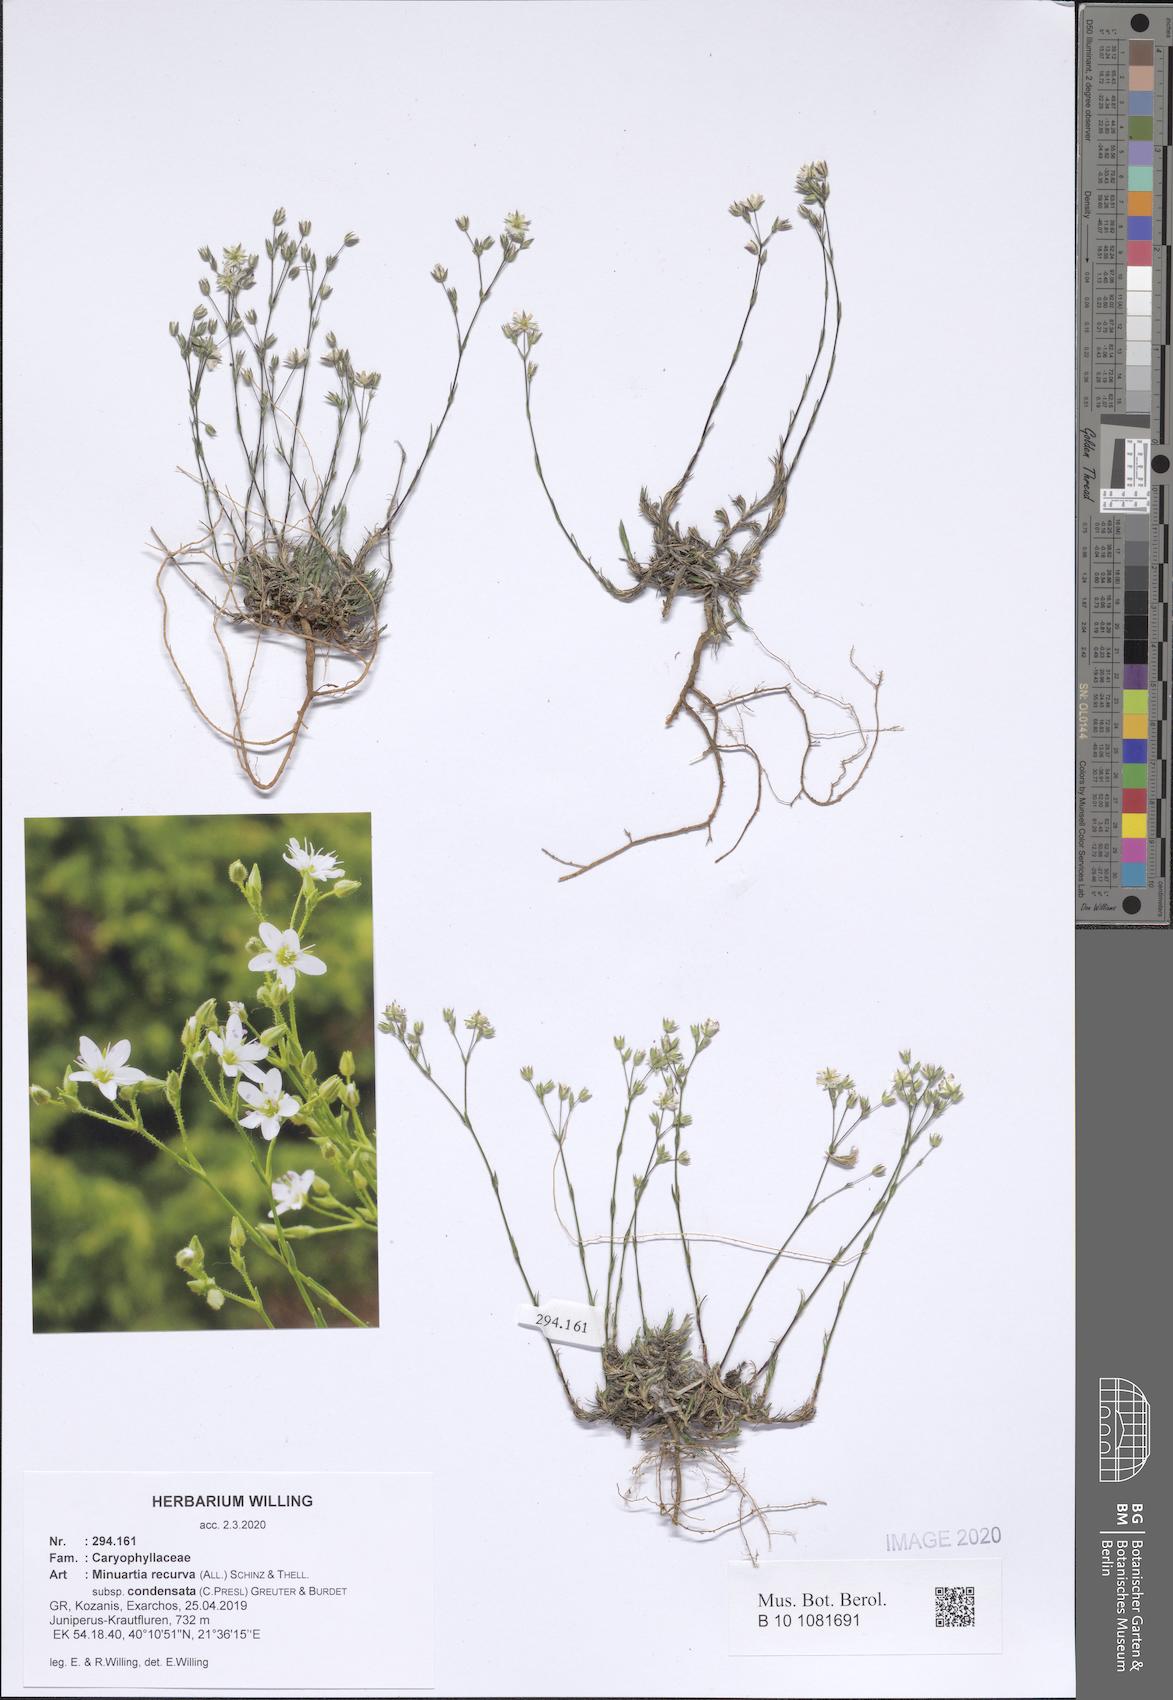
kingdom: Plantae
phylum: Tracheophyta
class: Magnoliopsida
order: Caryophyllales
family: Caryophyllaceae
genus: Minuartia
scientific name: Minuartia recurva
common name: Recurved sandwort
